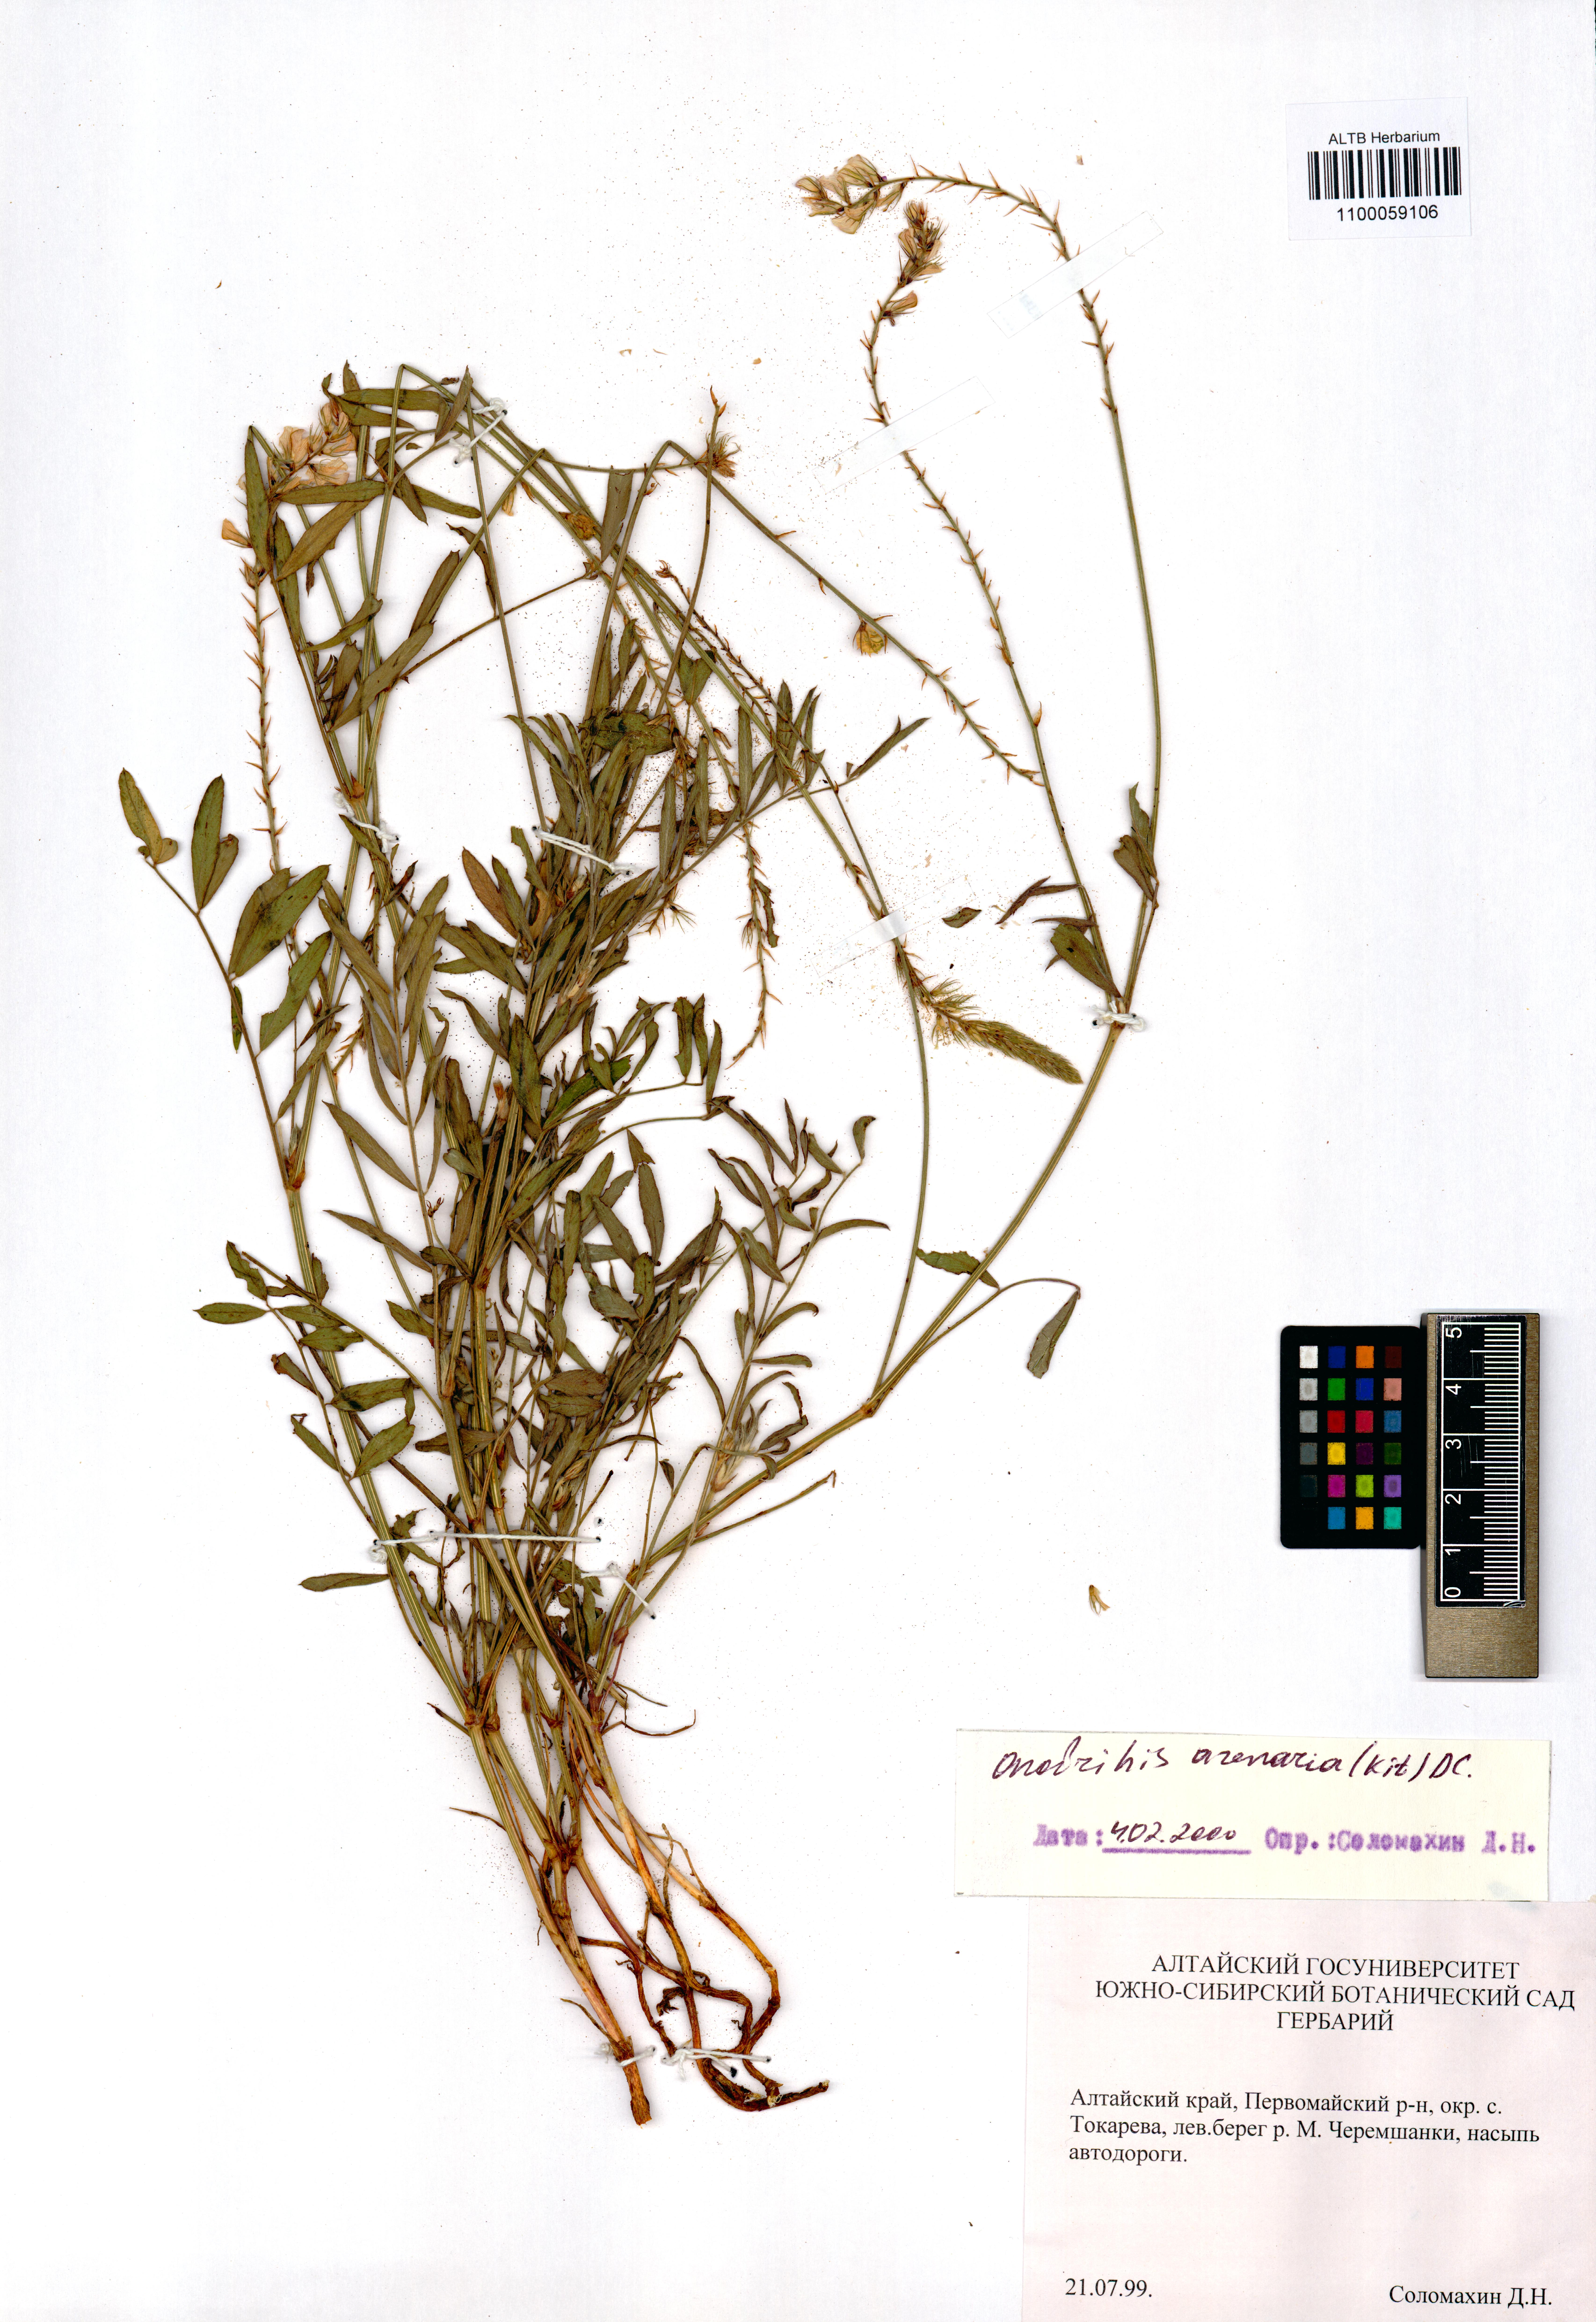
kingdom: Plantae
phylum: Tracheophyta
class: Magnoliopsida
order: Fabales
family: Fabaceae
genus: Onobrychis
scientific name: Onobrychis arenaria
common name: Sand esparcet
